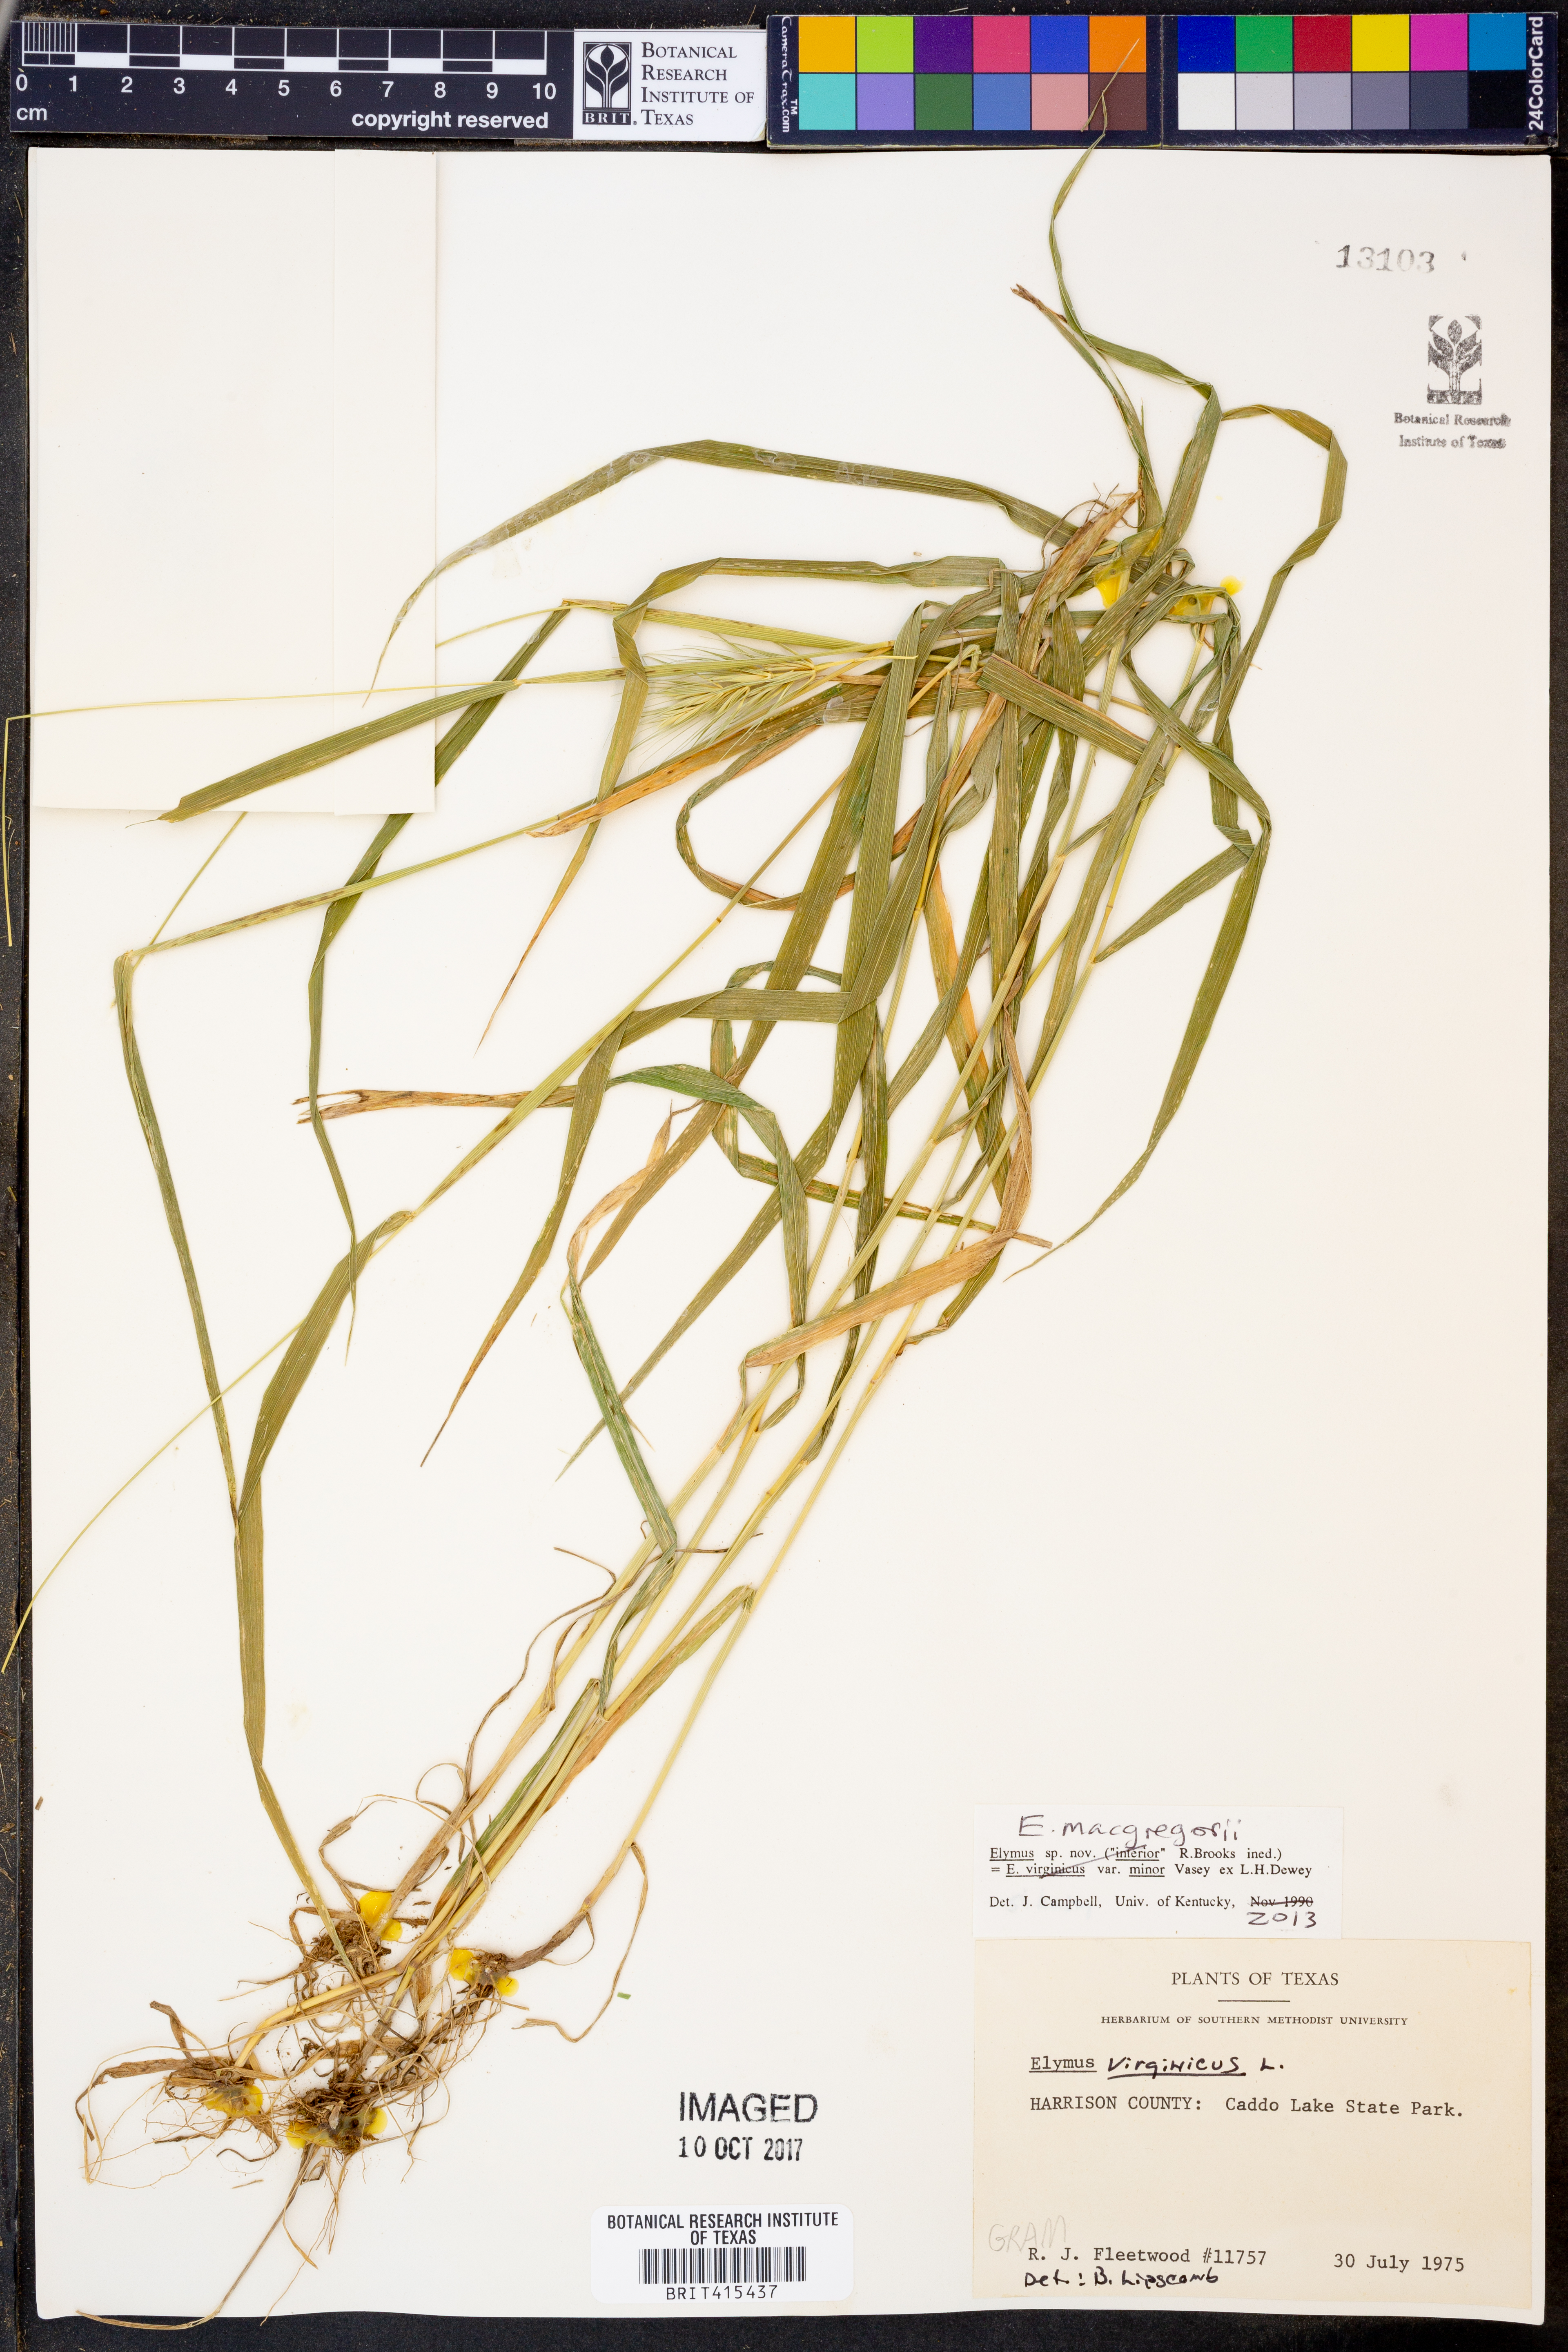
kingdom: Plantae
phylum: Tracheophyta
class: Liliopsida
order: Poales
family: Poaceae
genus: Elymus
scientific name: Elymus macgregorii
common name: Early wild rye
